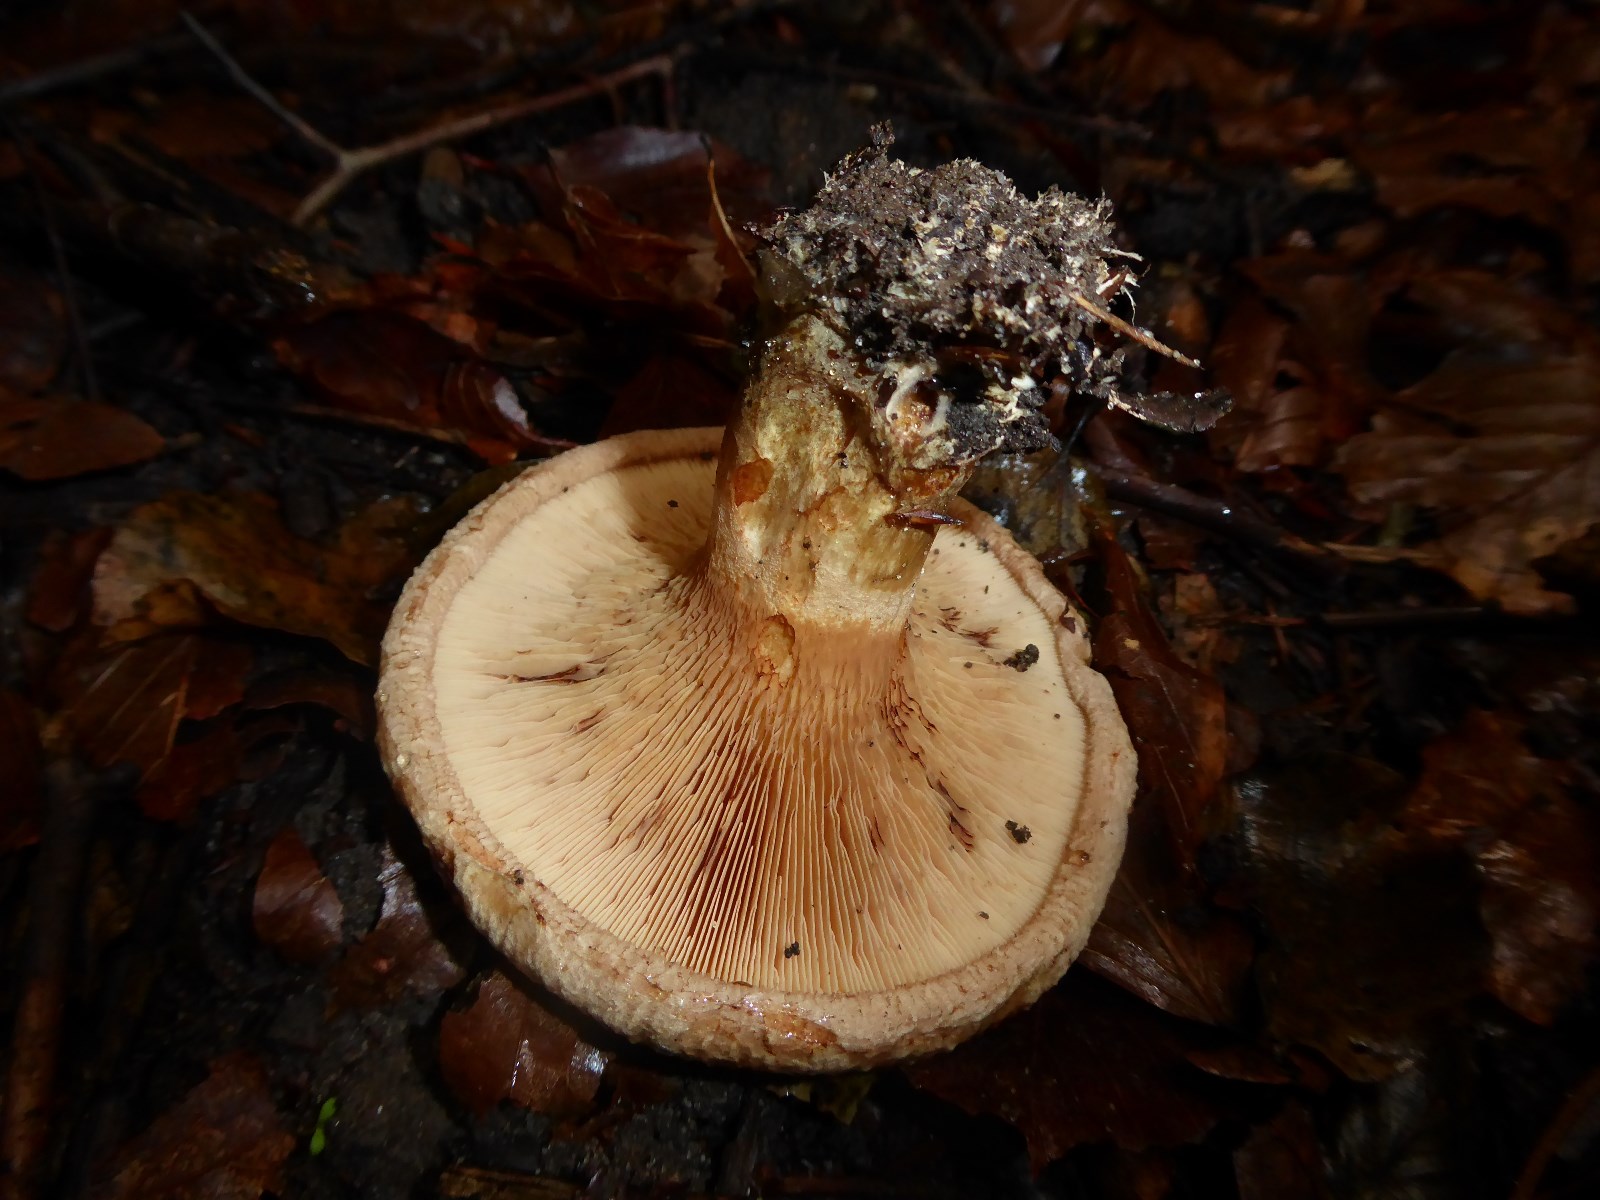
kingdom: Fungi
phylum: Basidiomycota
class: Agaricomycetes
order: Boletales
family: Paxillaceae
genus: Paxillus
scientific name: Paxillus
